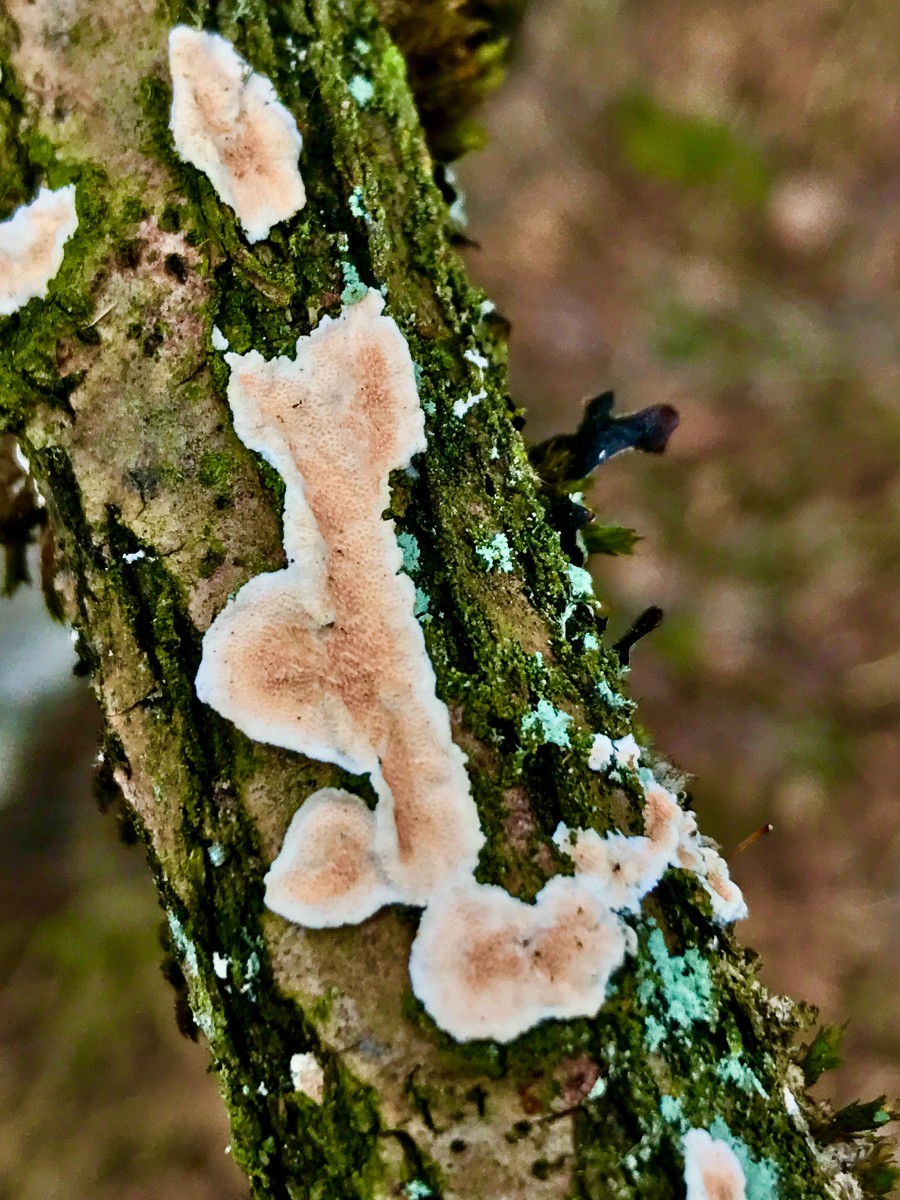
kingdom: Fungi
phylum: Basidiomycota
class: Agaricomycetes
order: Polyporales
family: Steccherinaceae
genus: Steccherinum
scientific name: Steccherinum ochraceum
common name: almindelig skønpig
